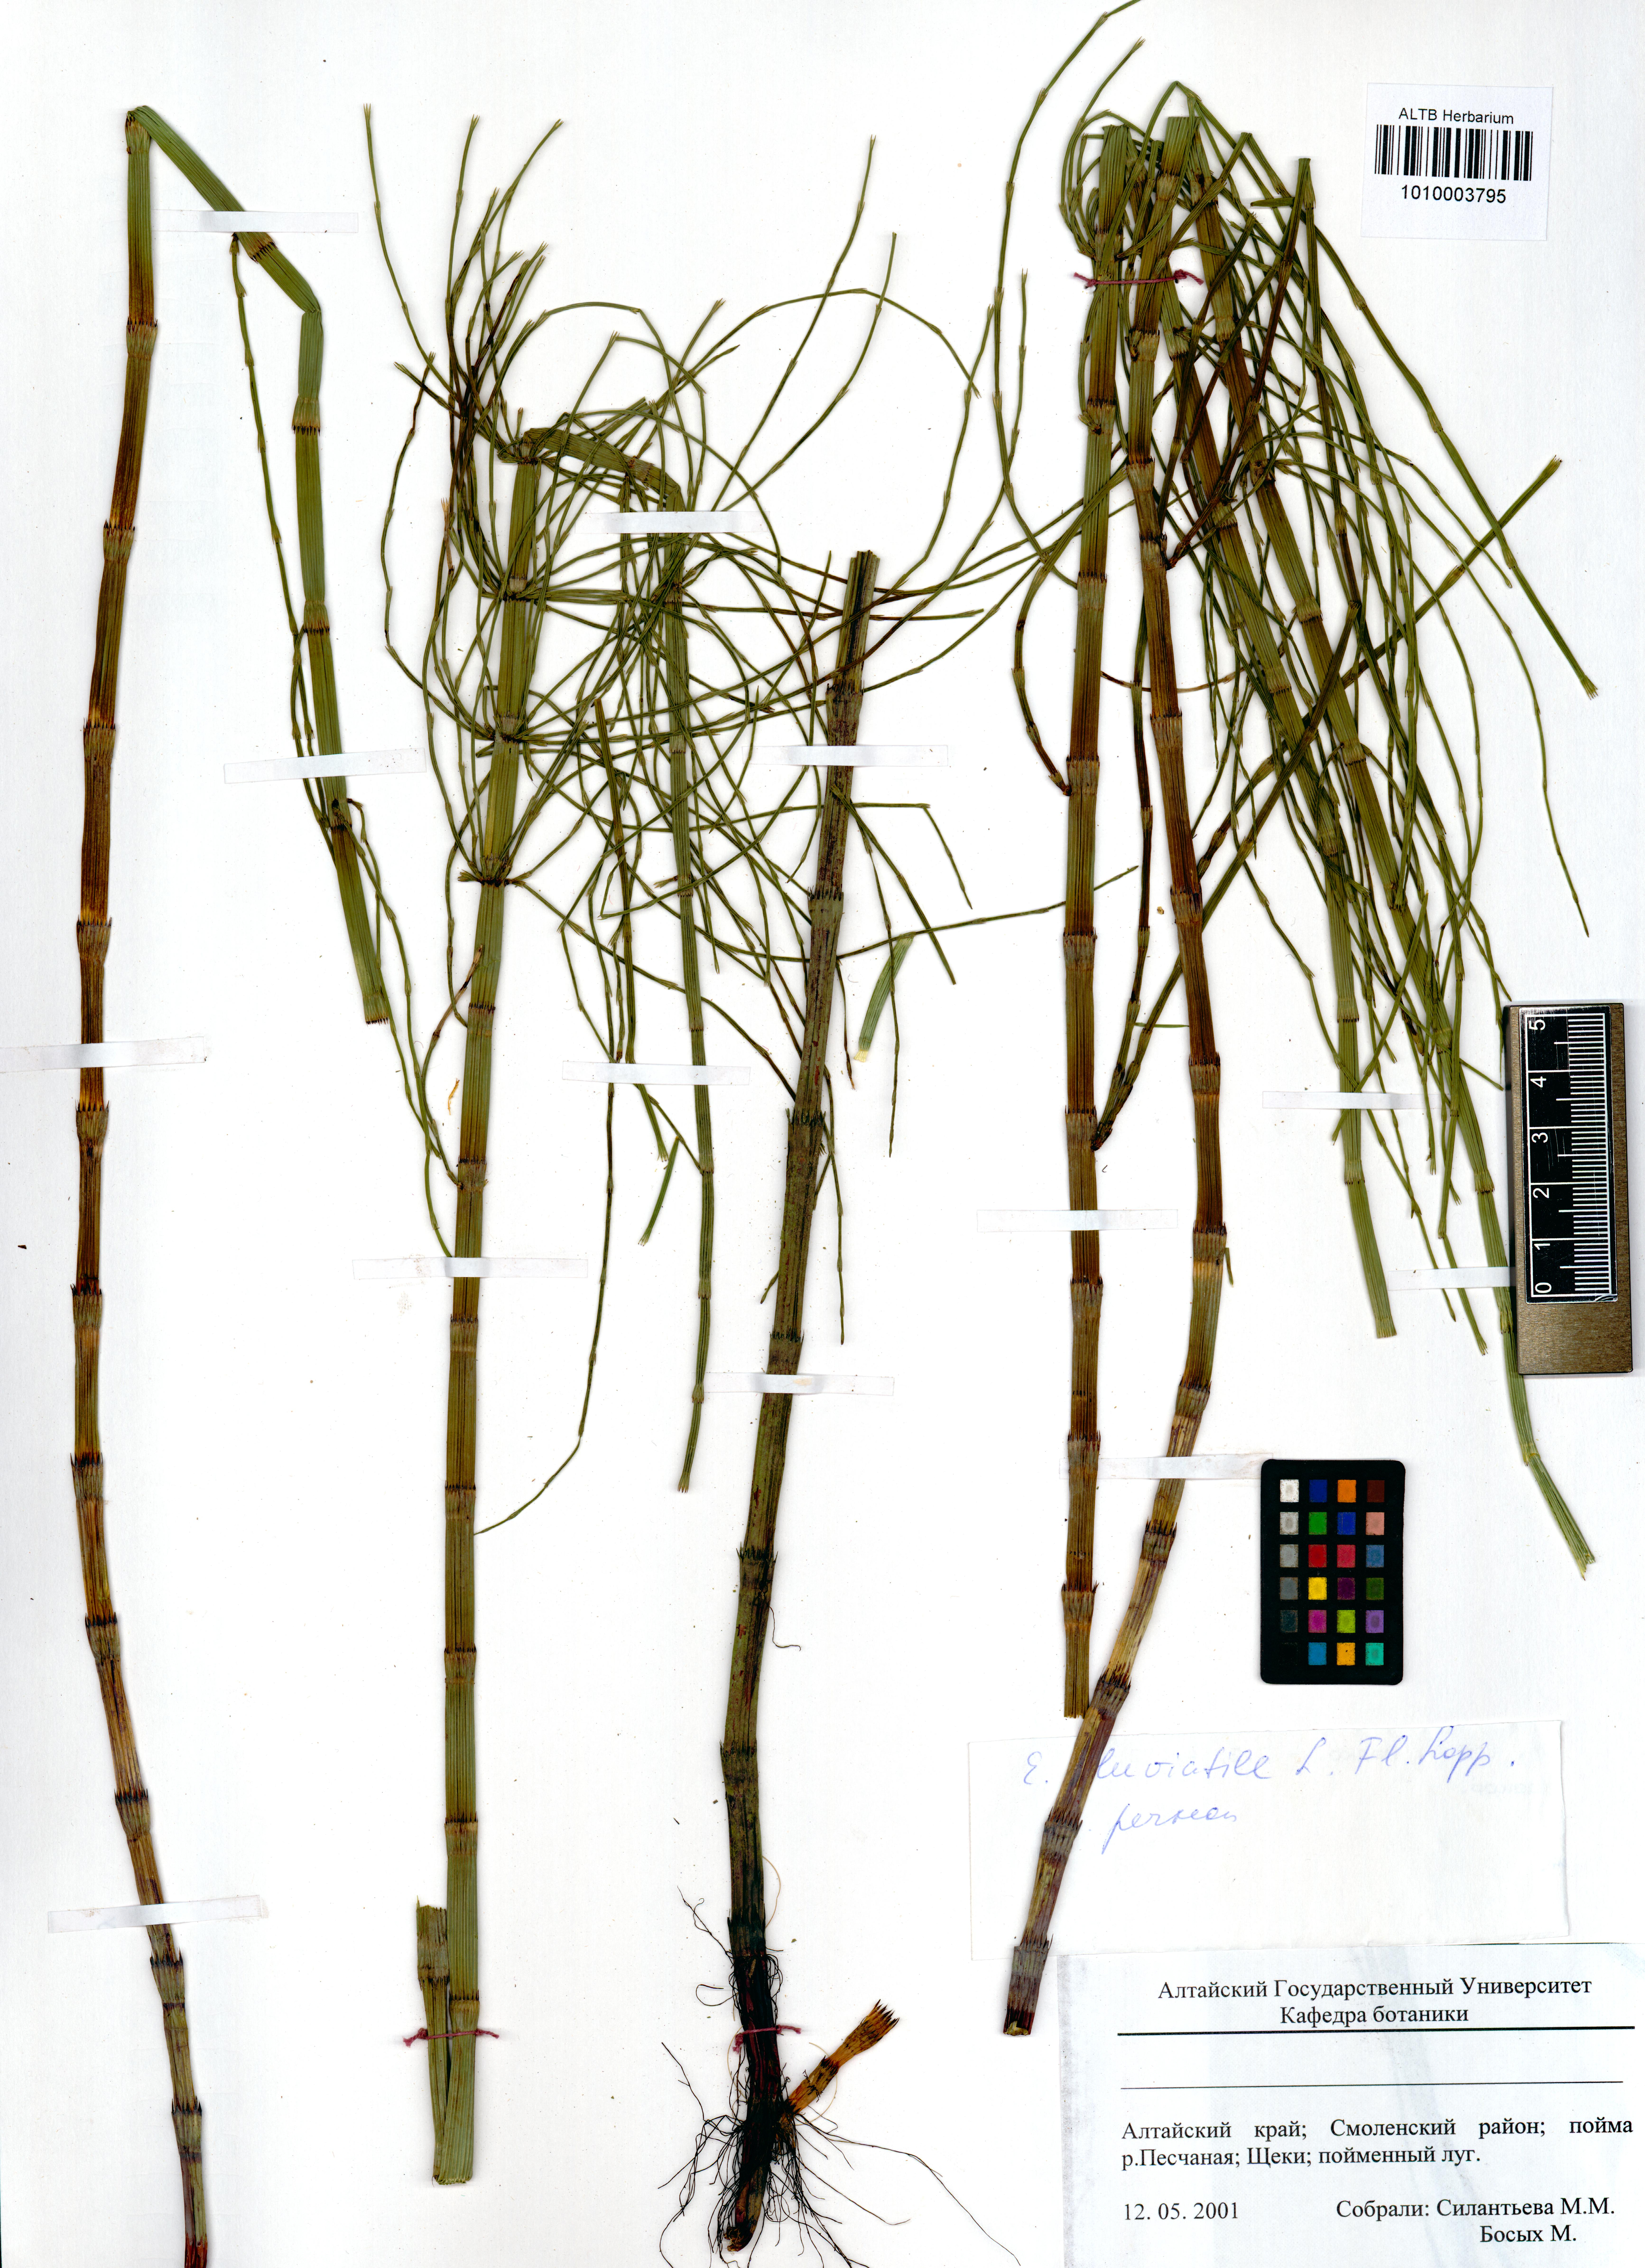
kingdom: Plantae
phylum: Tracheophyta
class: Polypodiopsida
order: Equisetales
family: Equisetaceae
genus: Equisetum
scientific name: Equisetum fluviatile
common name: Water horsetail
